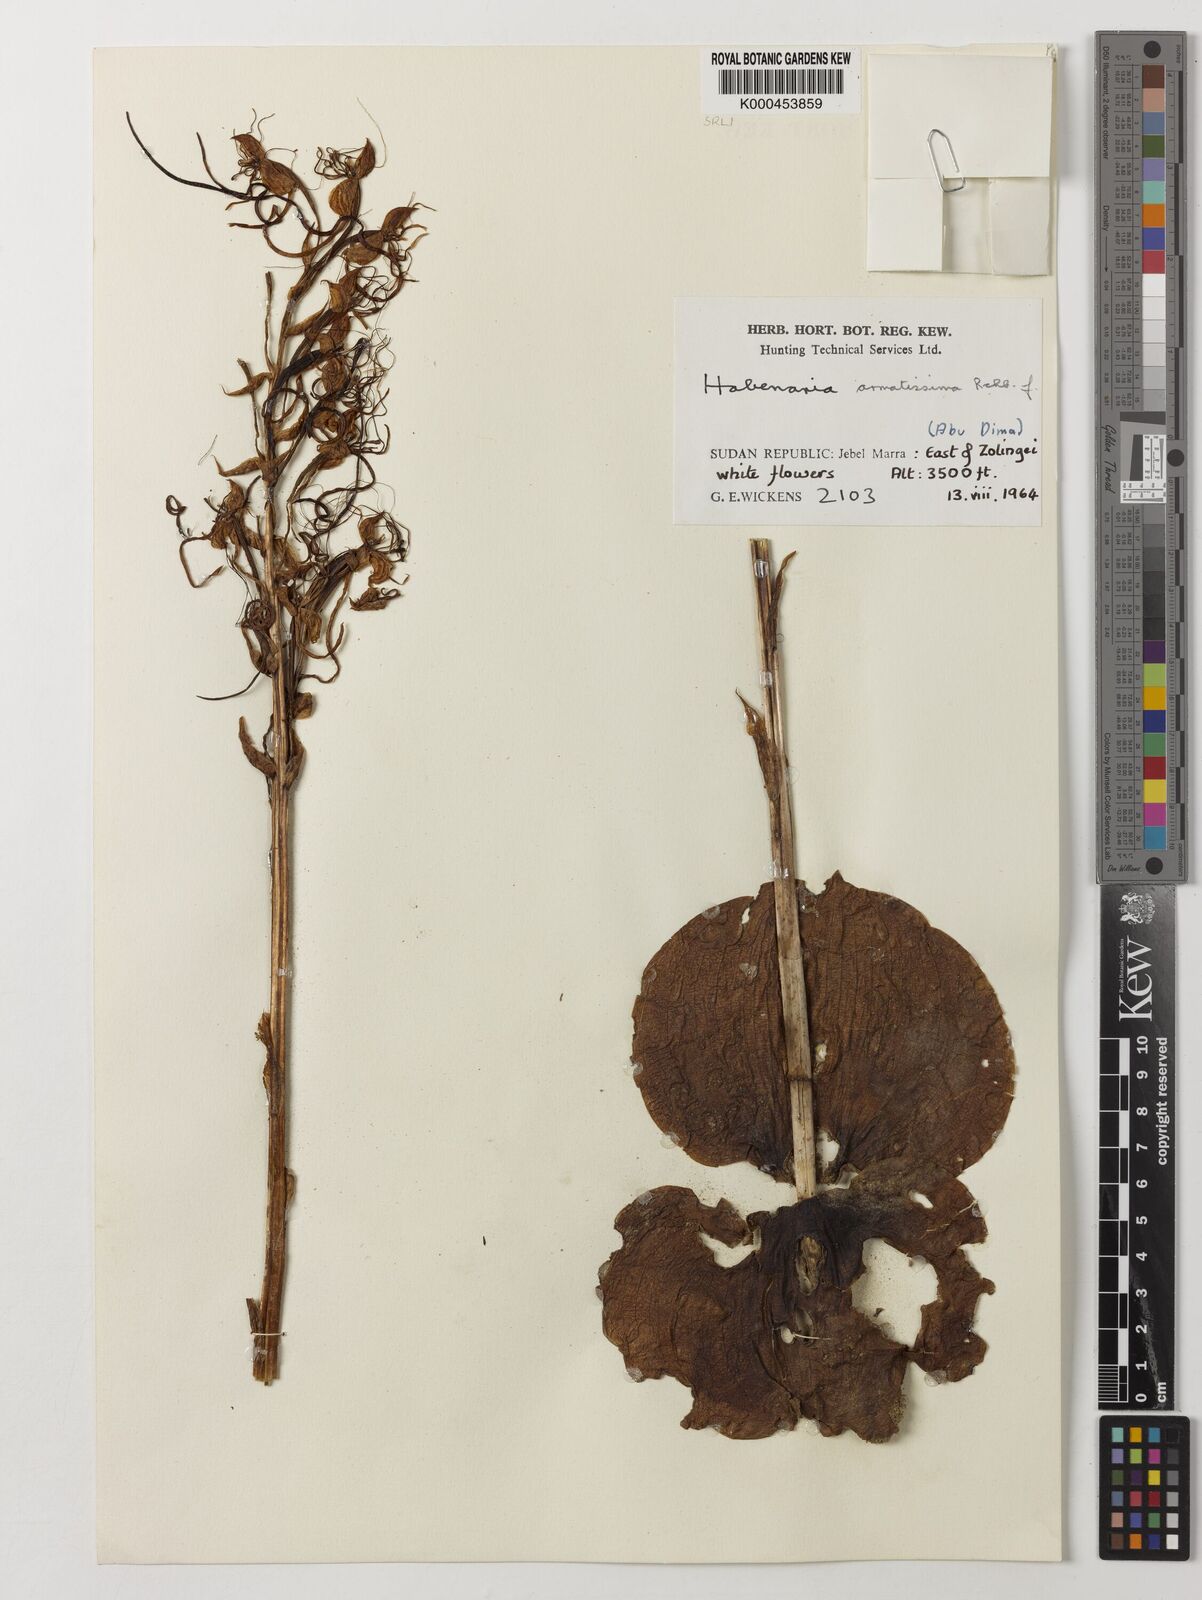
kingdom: Plantae
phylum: Tracheophyta
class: Liliopsida
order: Asparagales
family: Orchidaceae
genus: Habenaria
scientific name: Habenaria armatissima
